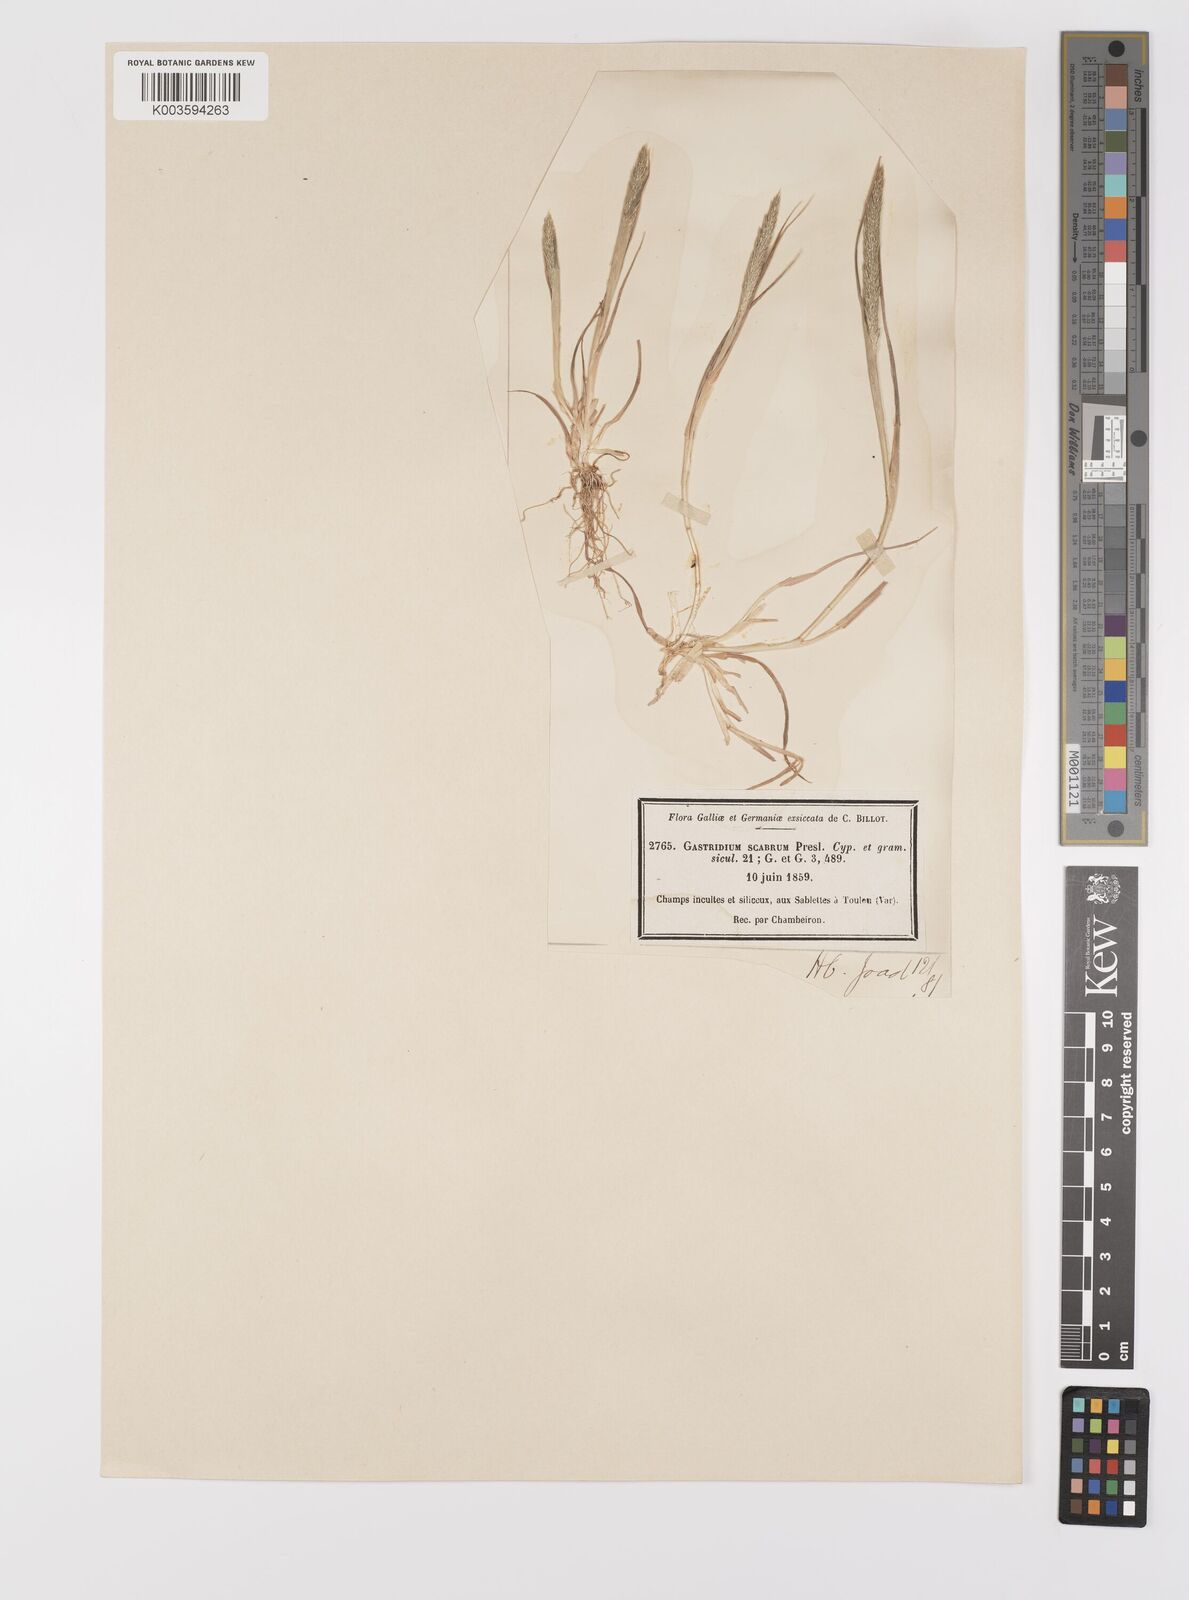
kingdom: Plantae
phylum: Tracheophyta
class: Liliopsida
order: Poales
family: Poaceae
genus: Gastridium
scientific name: Gastridium ventricosum
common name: Nit-grass
